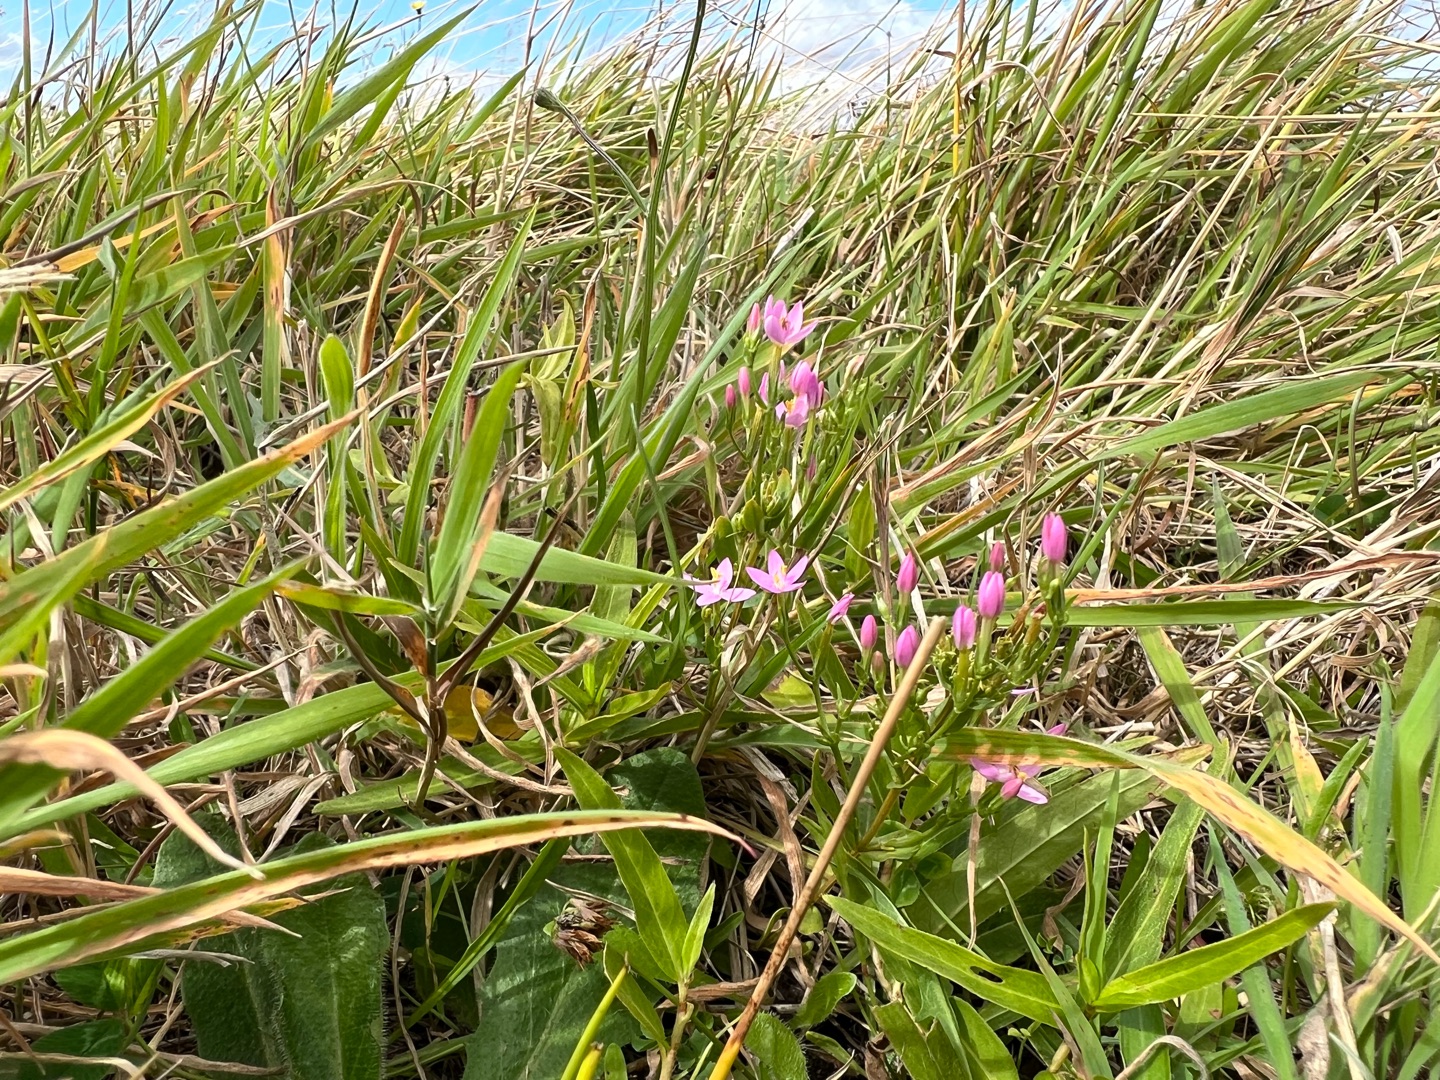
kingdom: Plantae
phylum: Tracheophyta
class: Magnoliopsida
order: Gentianales
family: Gentianaceae
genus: Centaurium
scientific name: Centaurium erythraea
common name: Mark-tusindgylden
